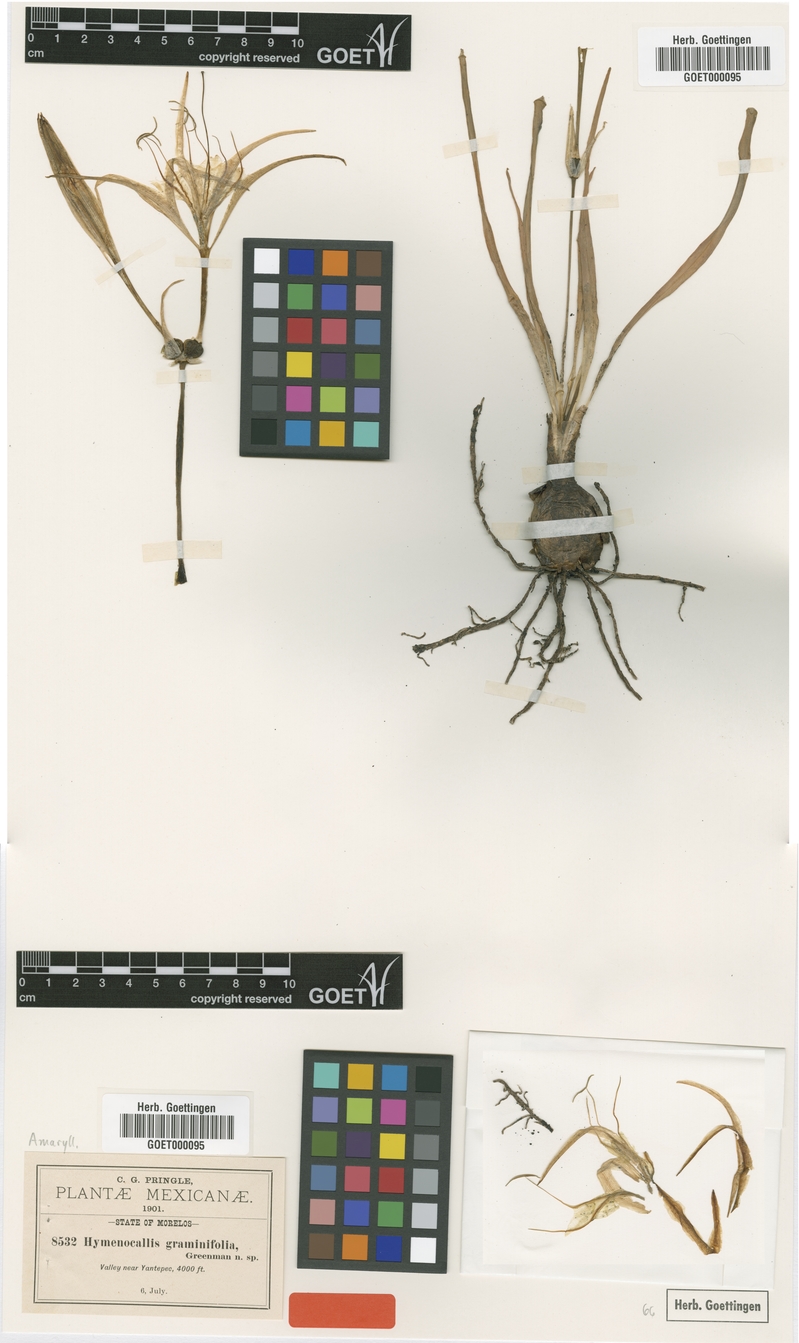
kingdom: Plantae
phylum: Tracheophyta
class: Liliopsida
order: Asparagales
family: Amaryllidaceae
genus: Hymenocallis
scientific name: Hymenocallis graminifolia
